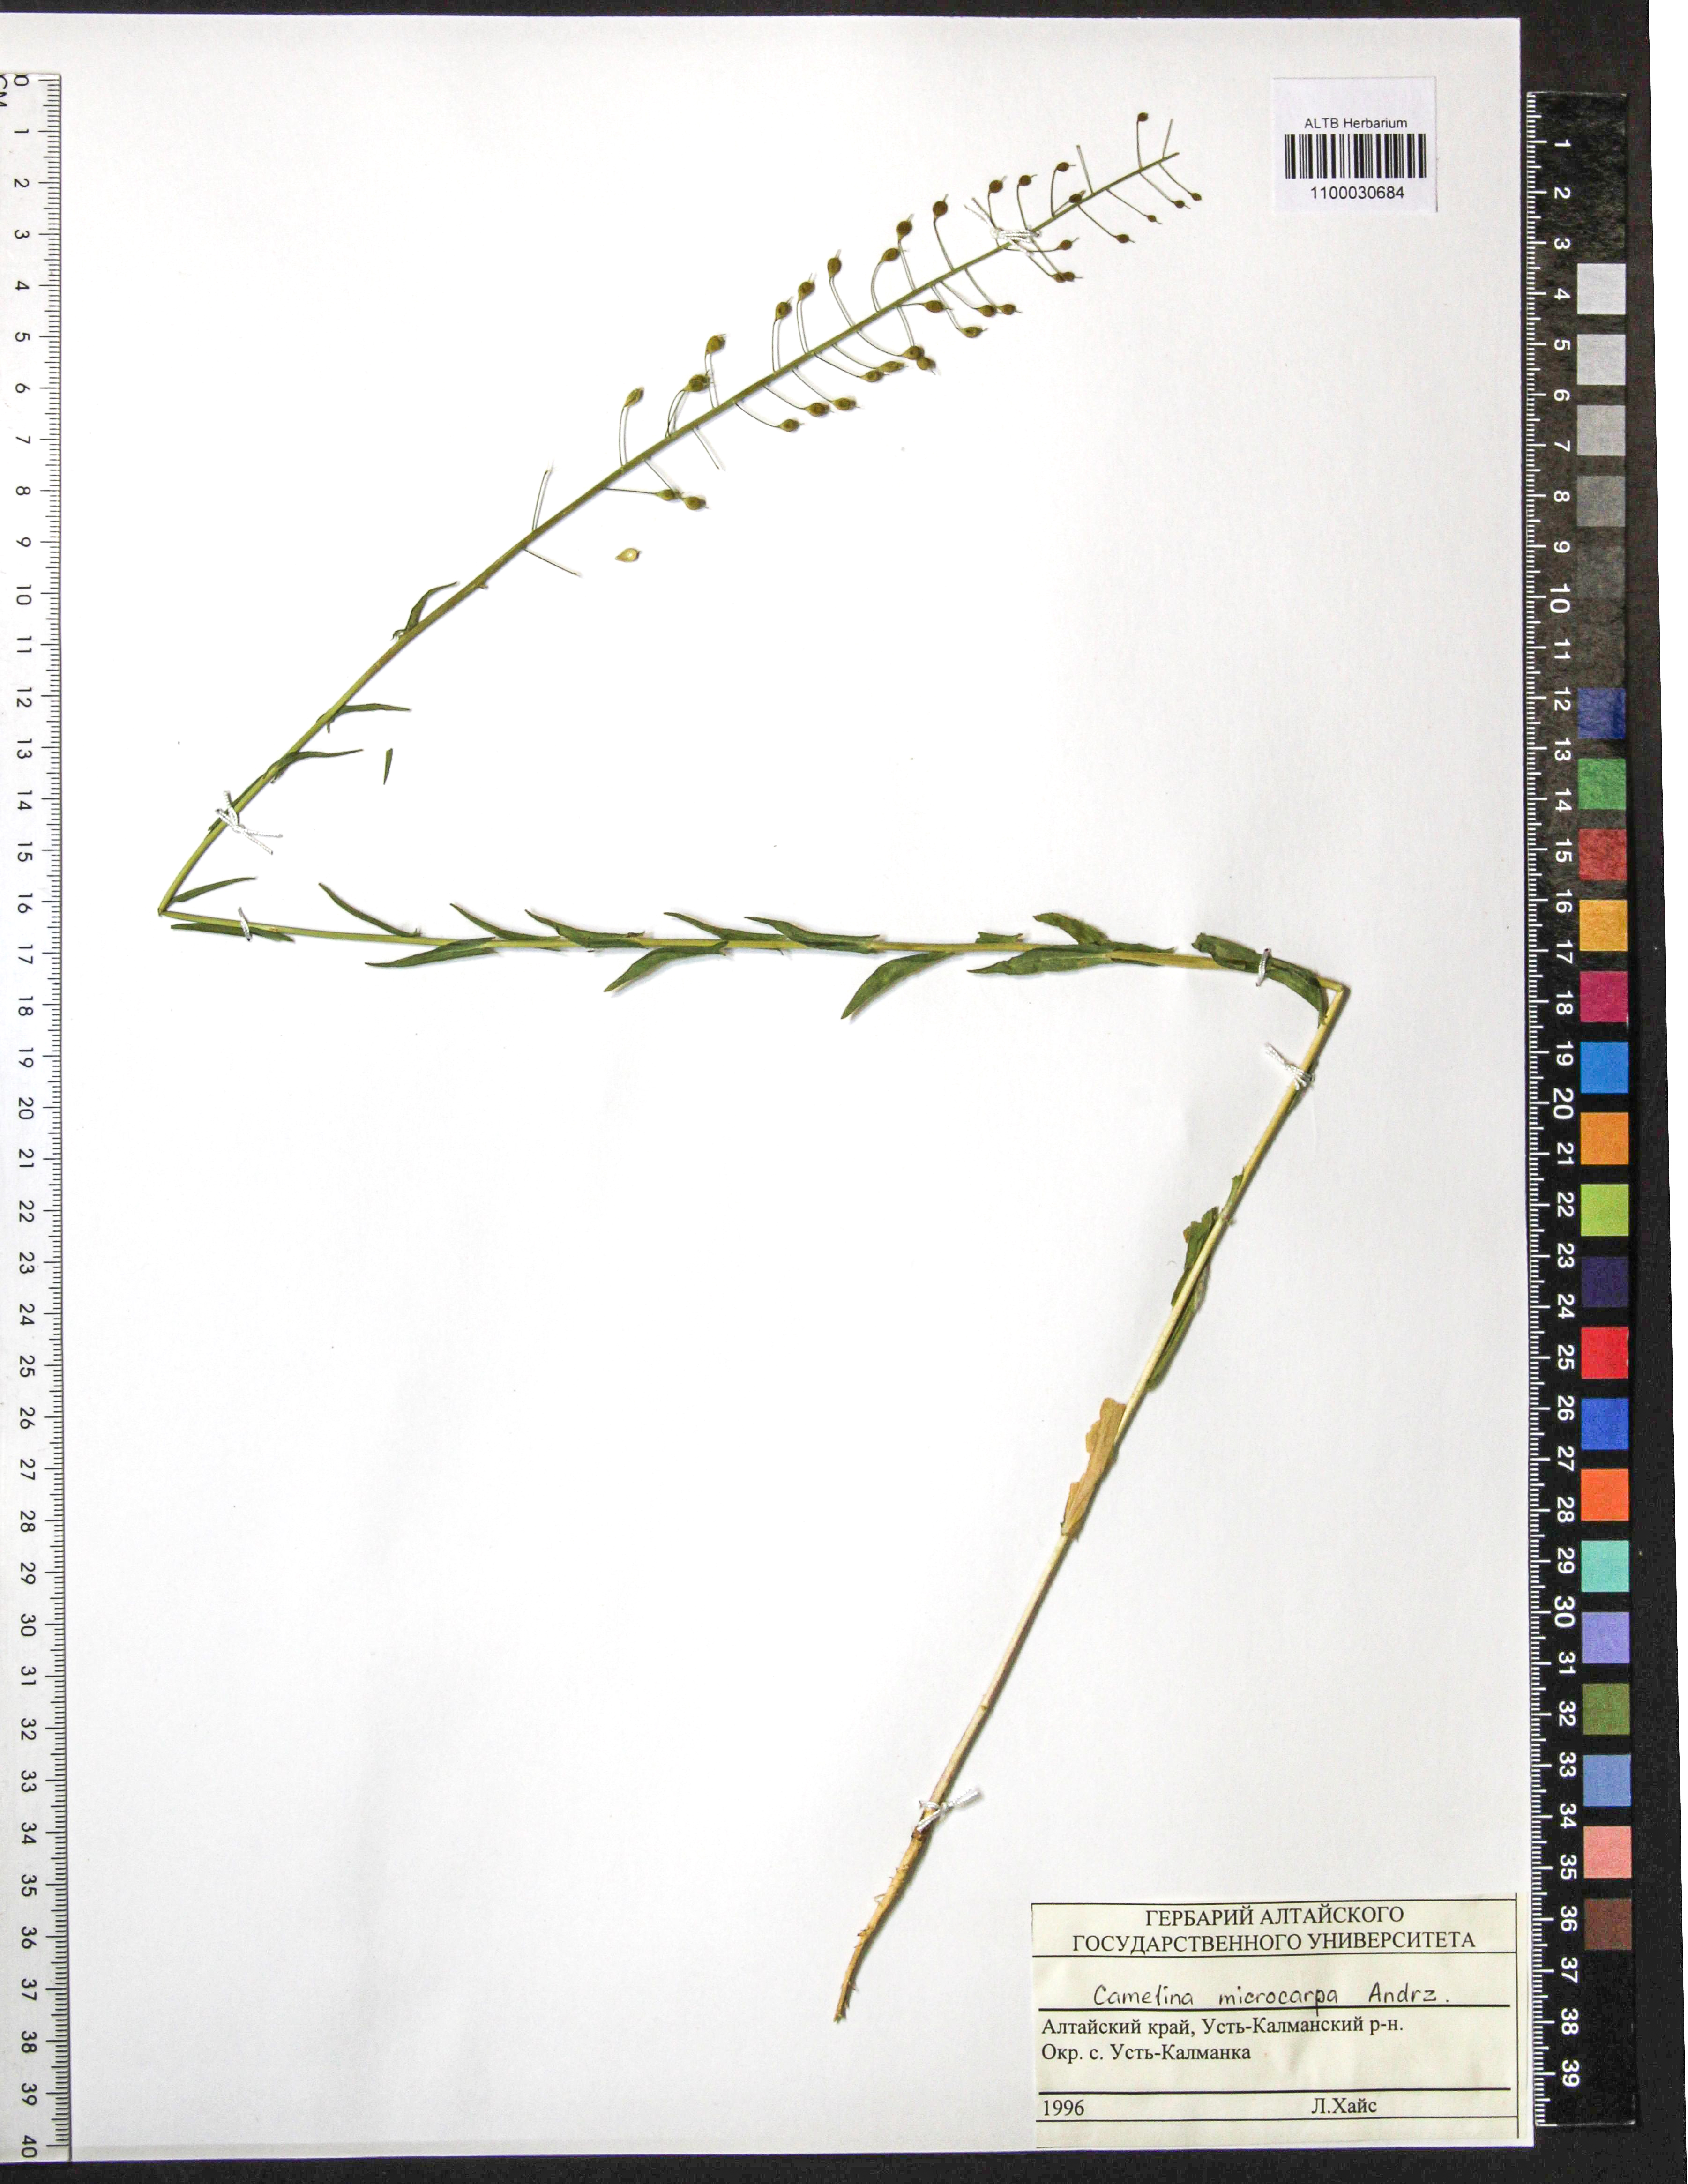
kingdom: Plantae
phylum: Tracheophyta
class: Magnoliopsida
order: Brassicales
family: Brassicaceae
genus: Camelina
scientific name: Camelina microcarpa
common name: Lesser gold-of-pleasure
